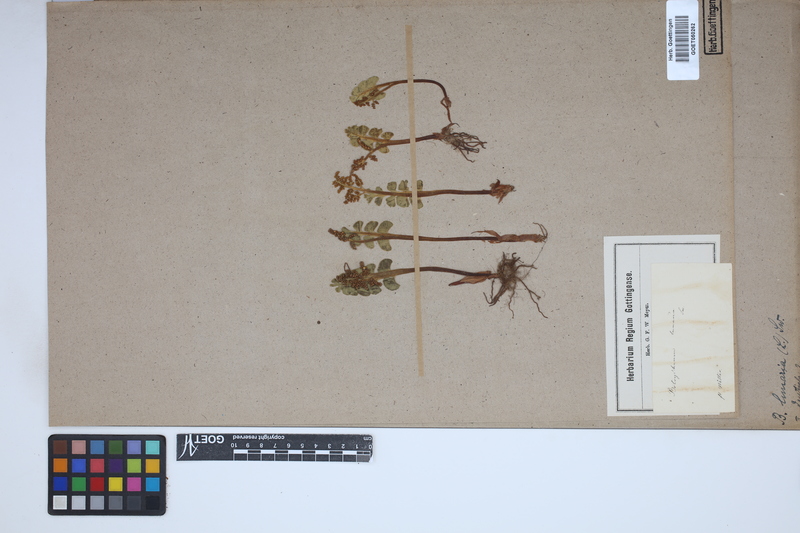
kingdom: Plantae
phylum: Tracheophyta
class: Polypodiopsida
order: Ophioglossales
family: Ophioglossaceae
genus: Botrychium
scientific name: Botrychium lunaria
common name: Moonwort
